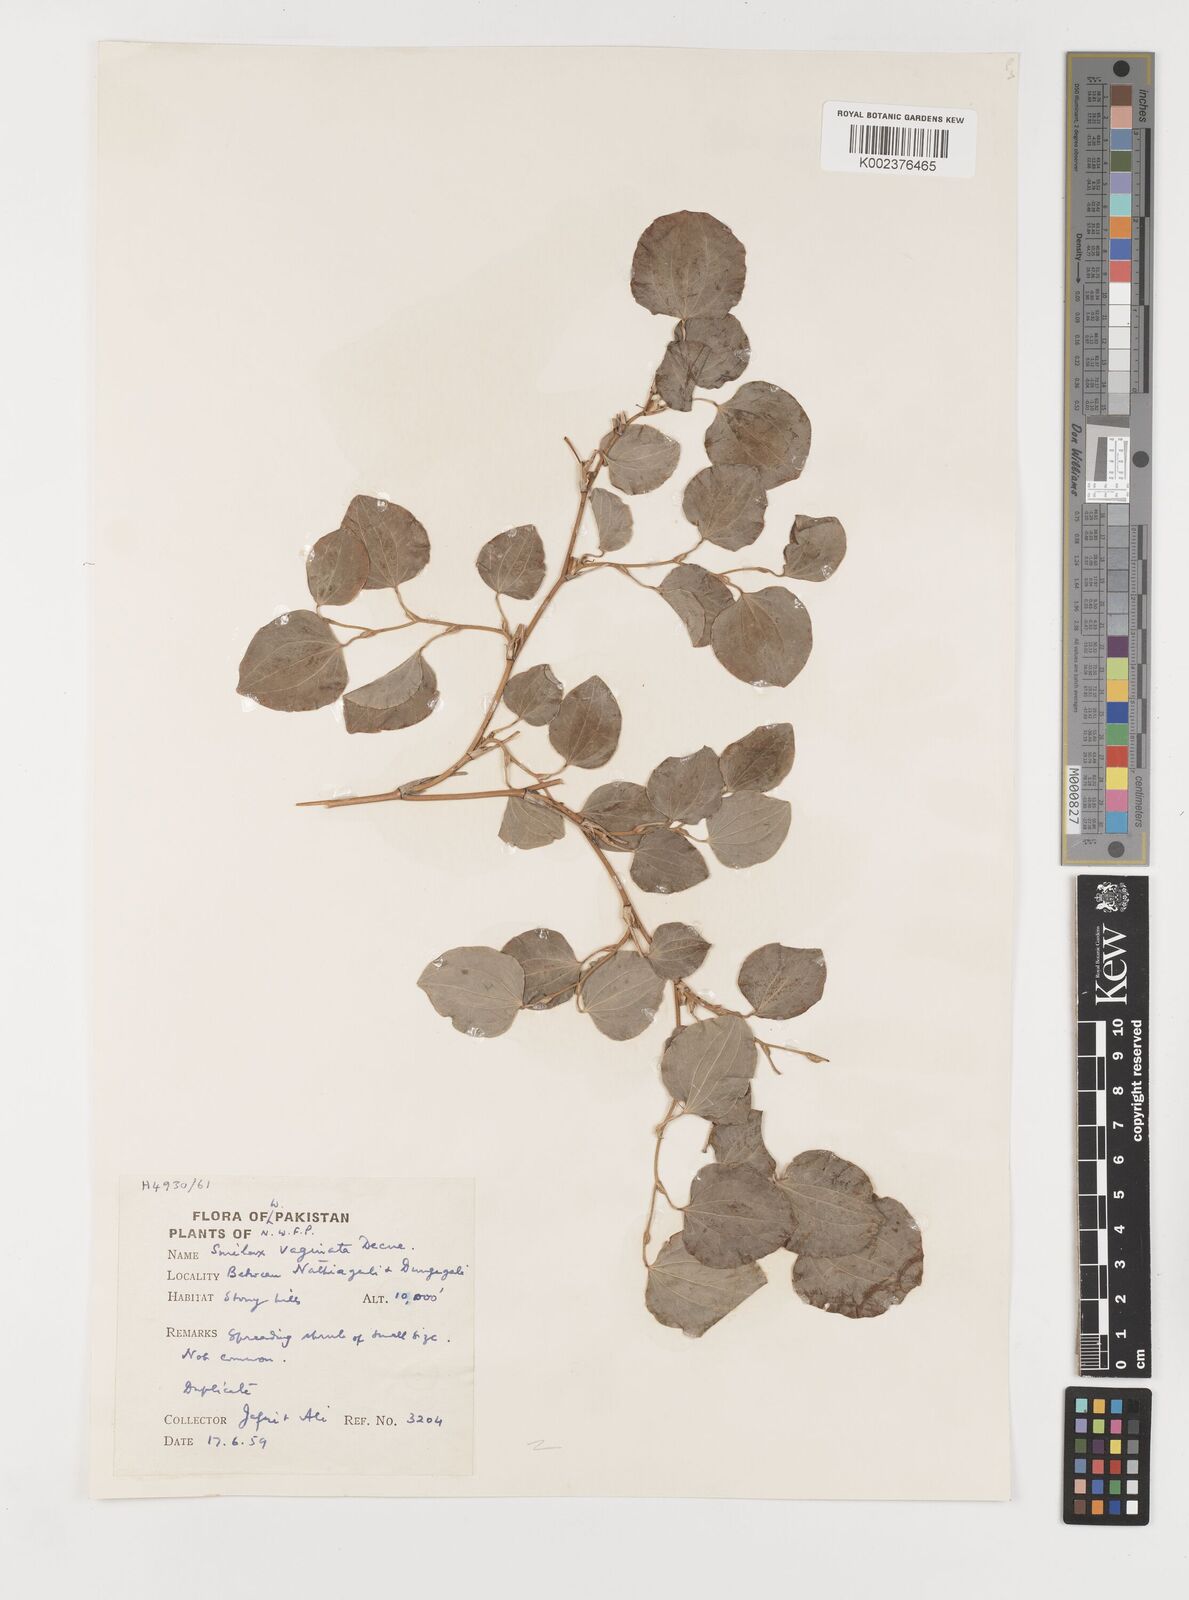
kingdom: Plantae
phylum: Tracheophyta
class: Liliopsida
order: Liliales
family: Smilacaceae
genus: Smilax
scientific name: Smilax vaginata
